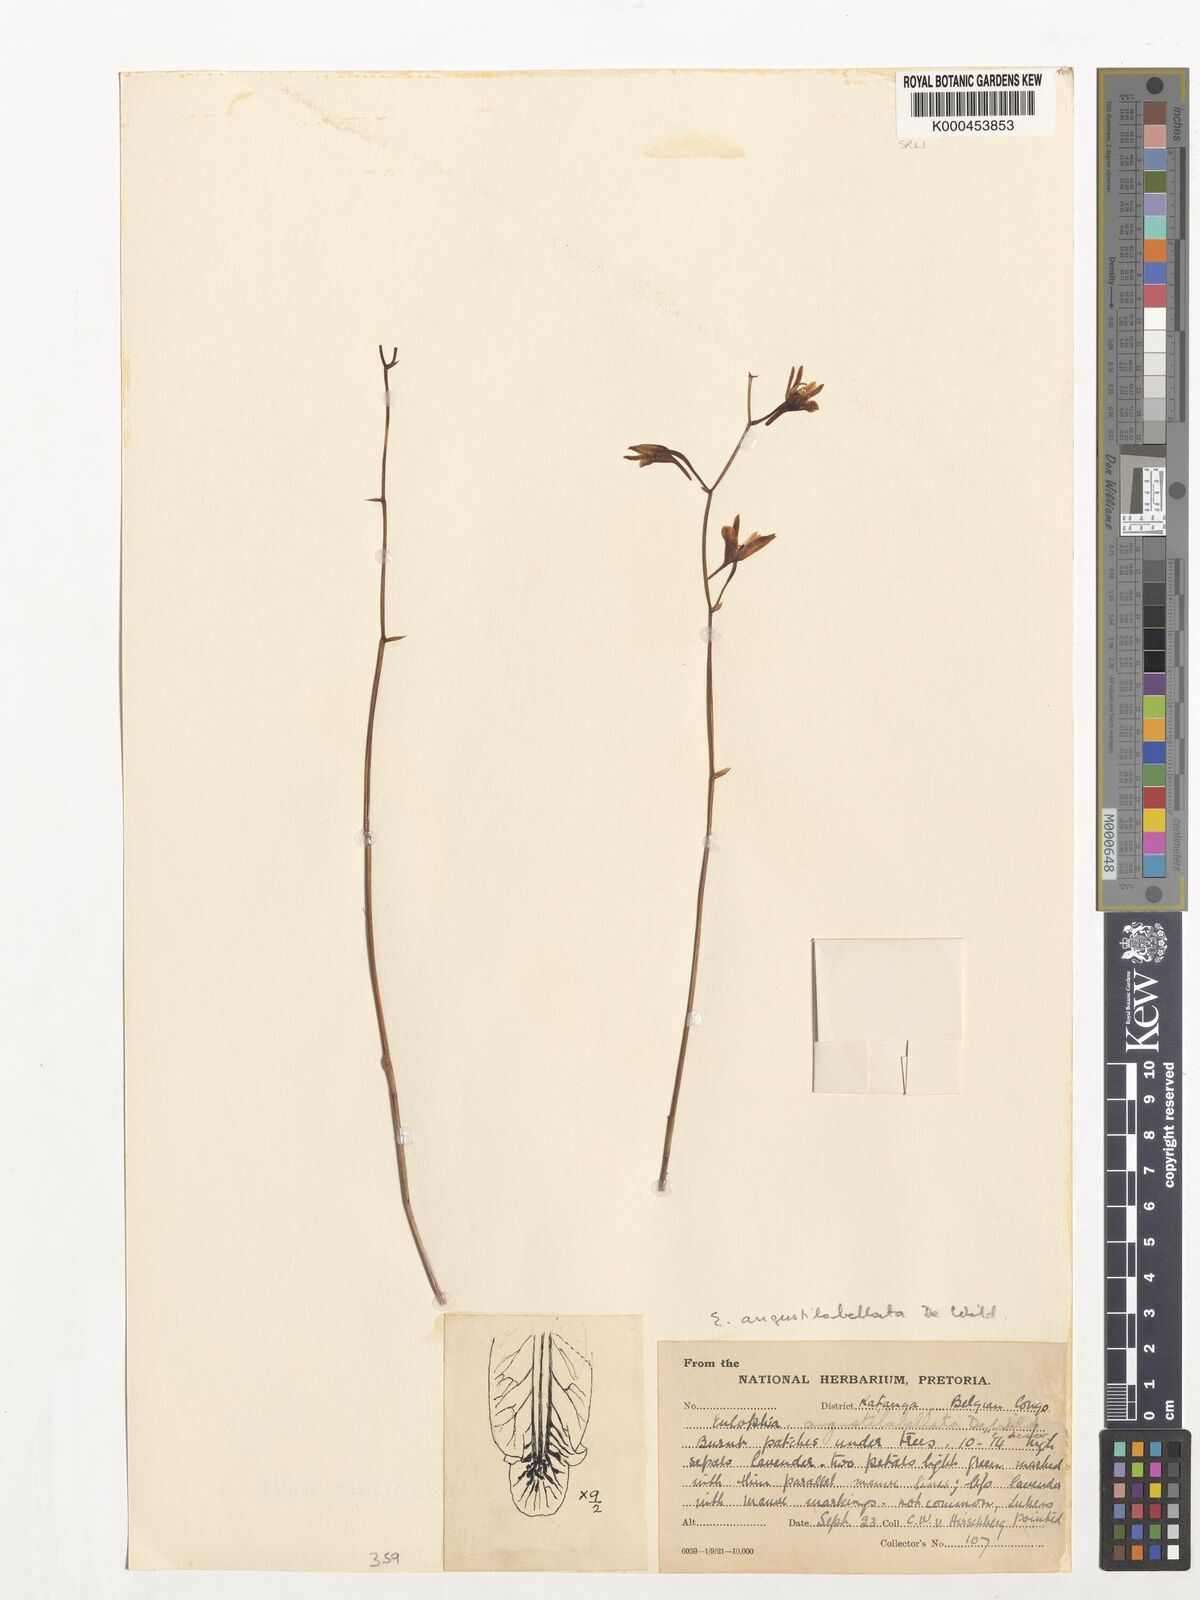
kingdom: Plantae
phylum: Tracheophyta
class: Liliopsida
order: Asparagales
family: Orchidaceae
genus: Eulophia
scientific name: Eulophia katangensis
